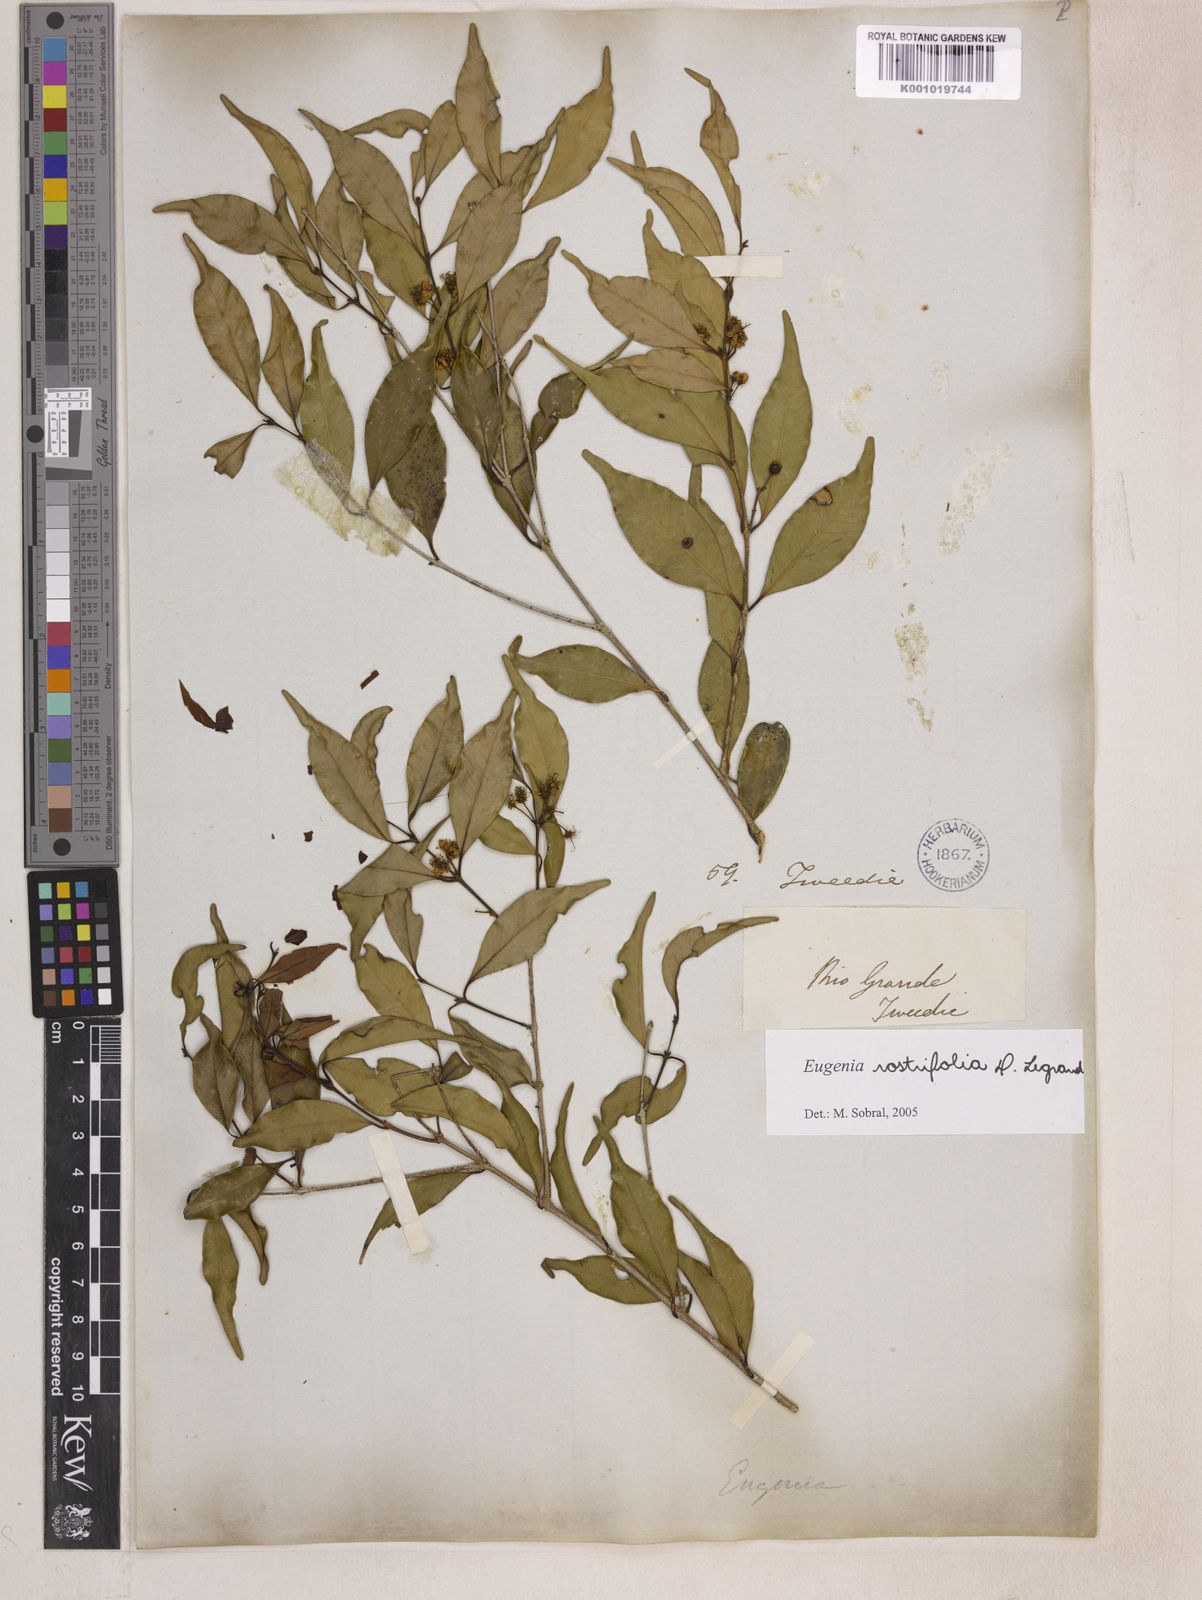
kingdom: Plantae
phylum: Tracheophyta
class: Magnoliopsida
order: Myrtales
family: Myrtaceae
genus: Eugenia
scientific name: Eugenia rostrifolia
